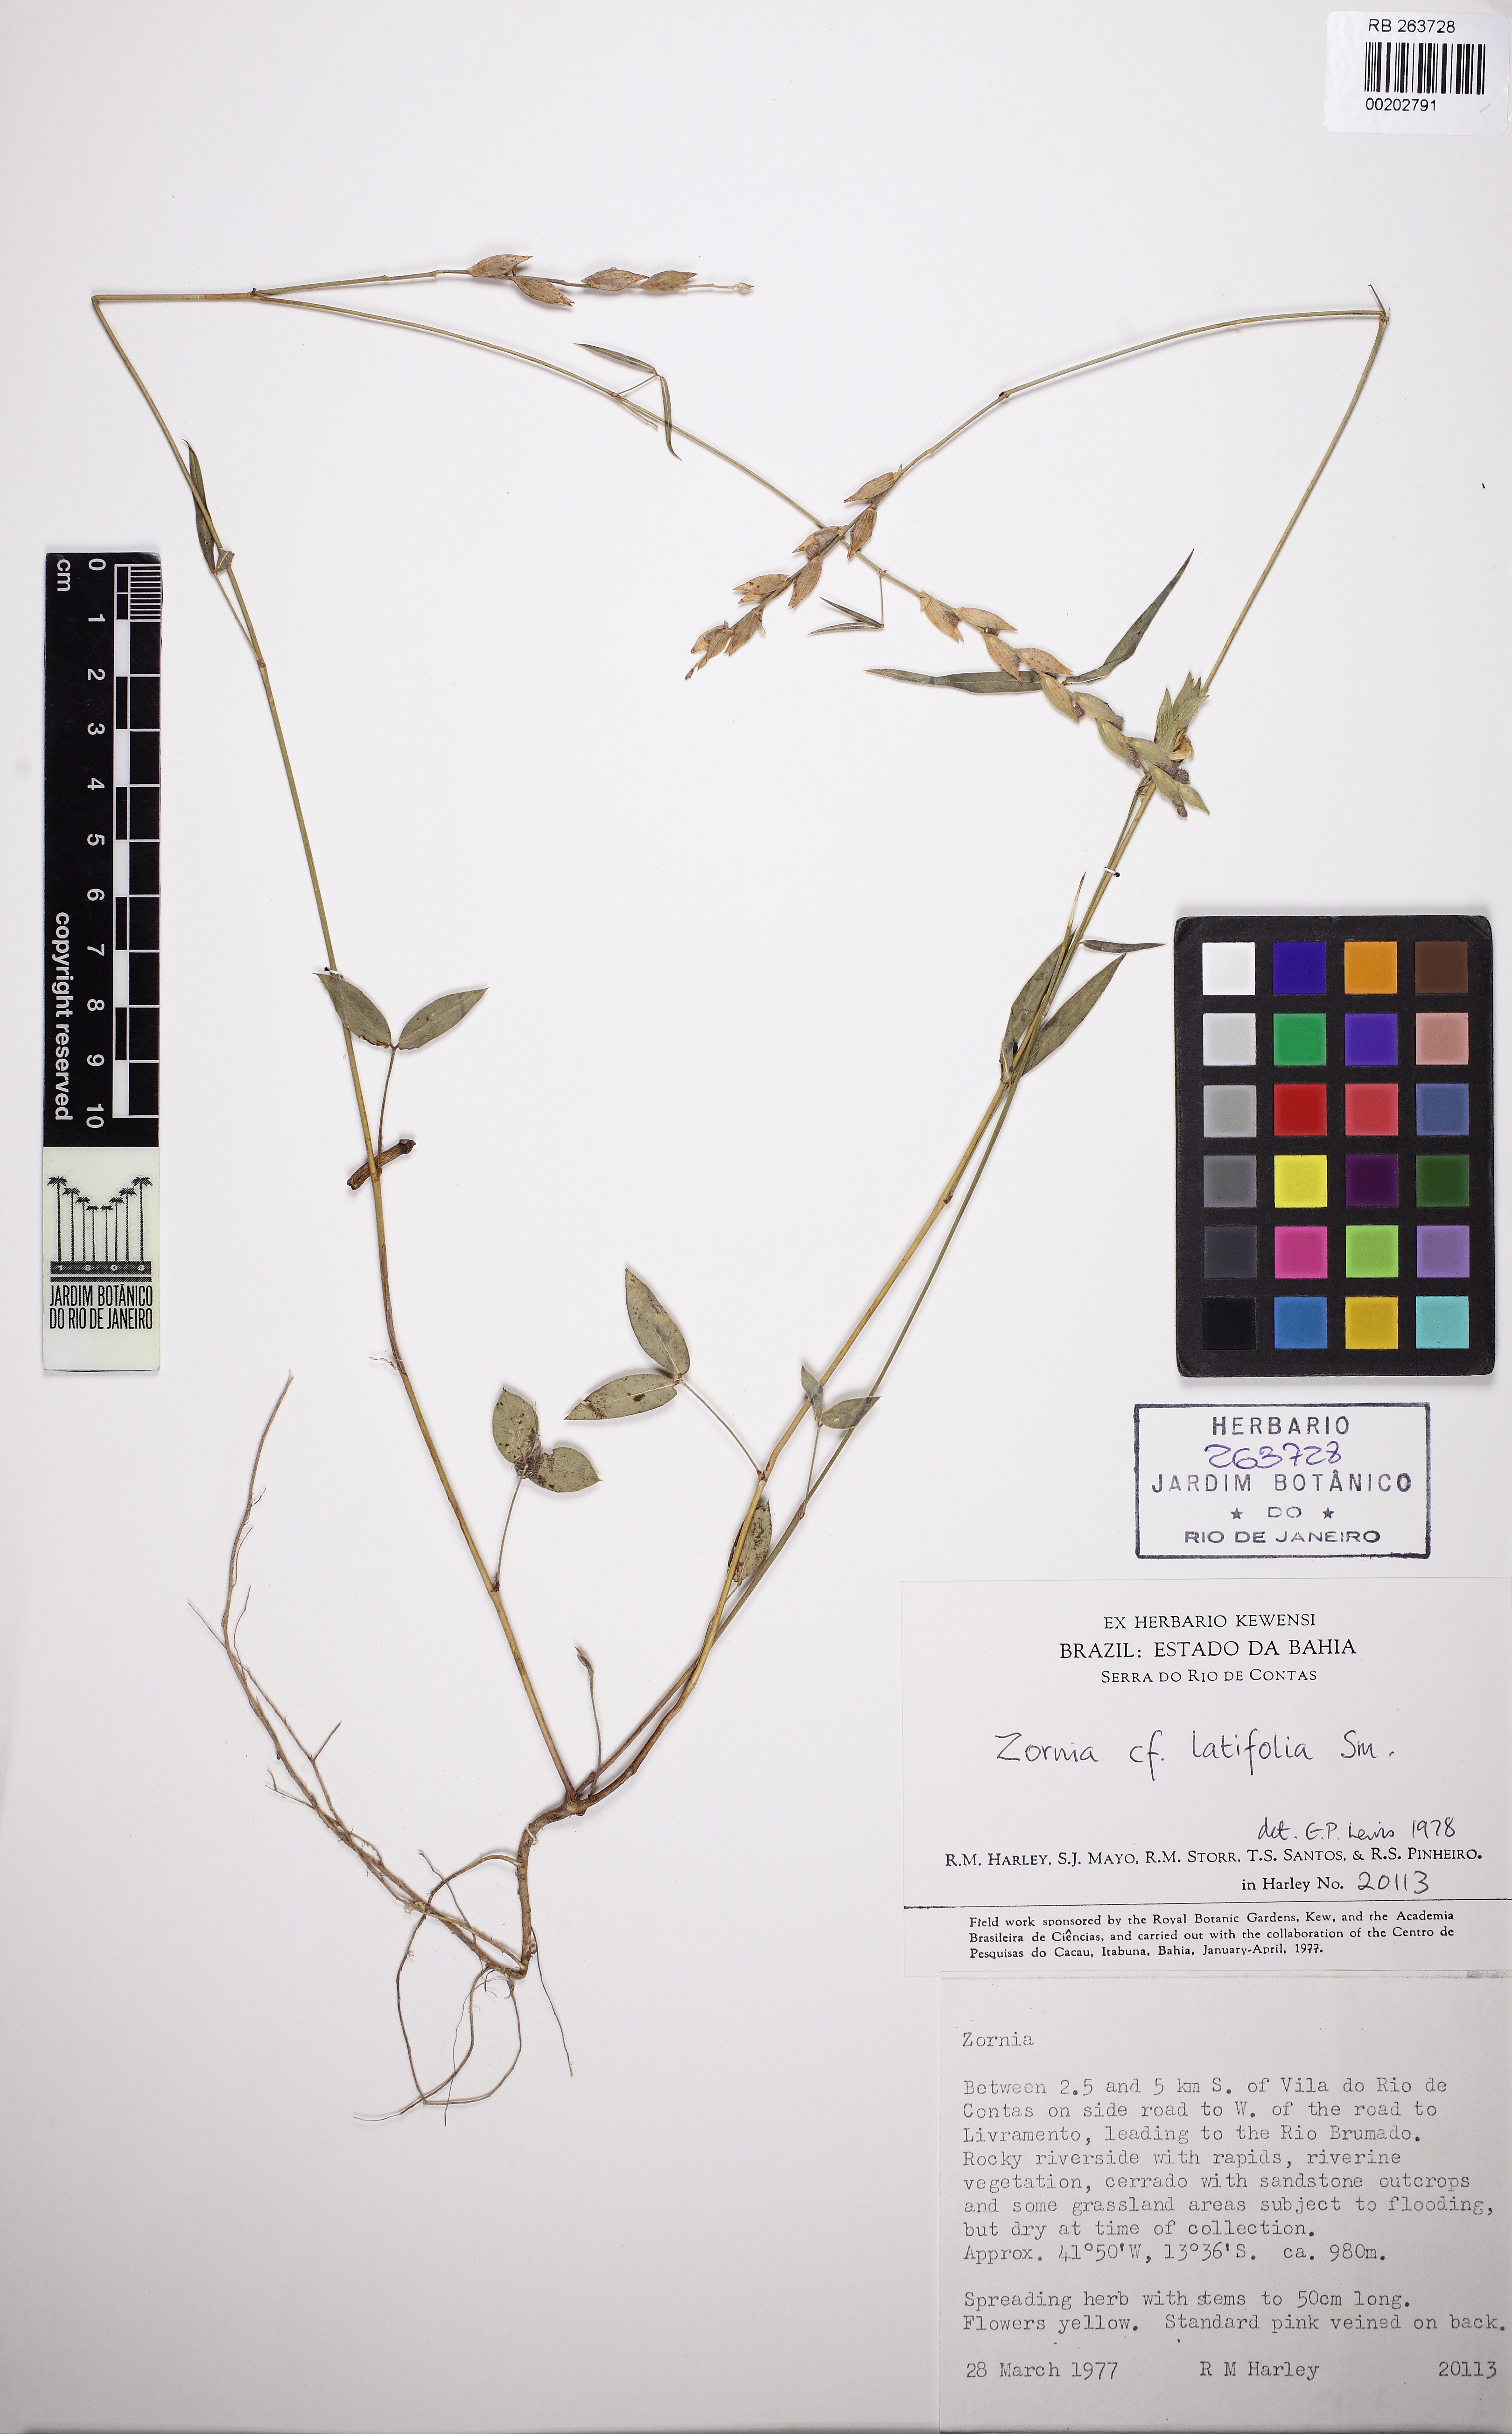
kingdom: Plantae
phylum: Tracheophyta
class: Magnoliopsida
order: Fabales
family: Fabaceae
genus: Zornia
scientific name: Zornia latifolia
